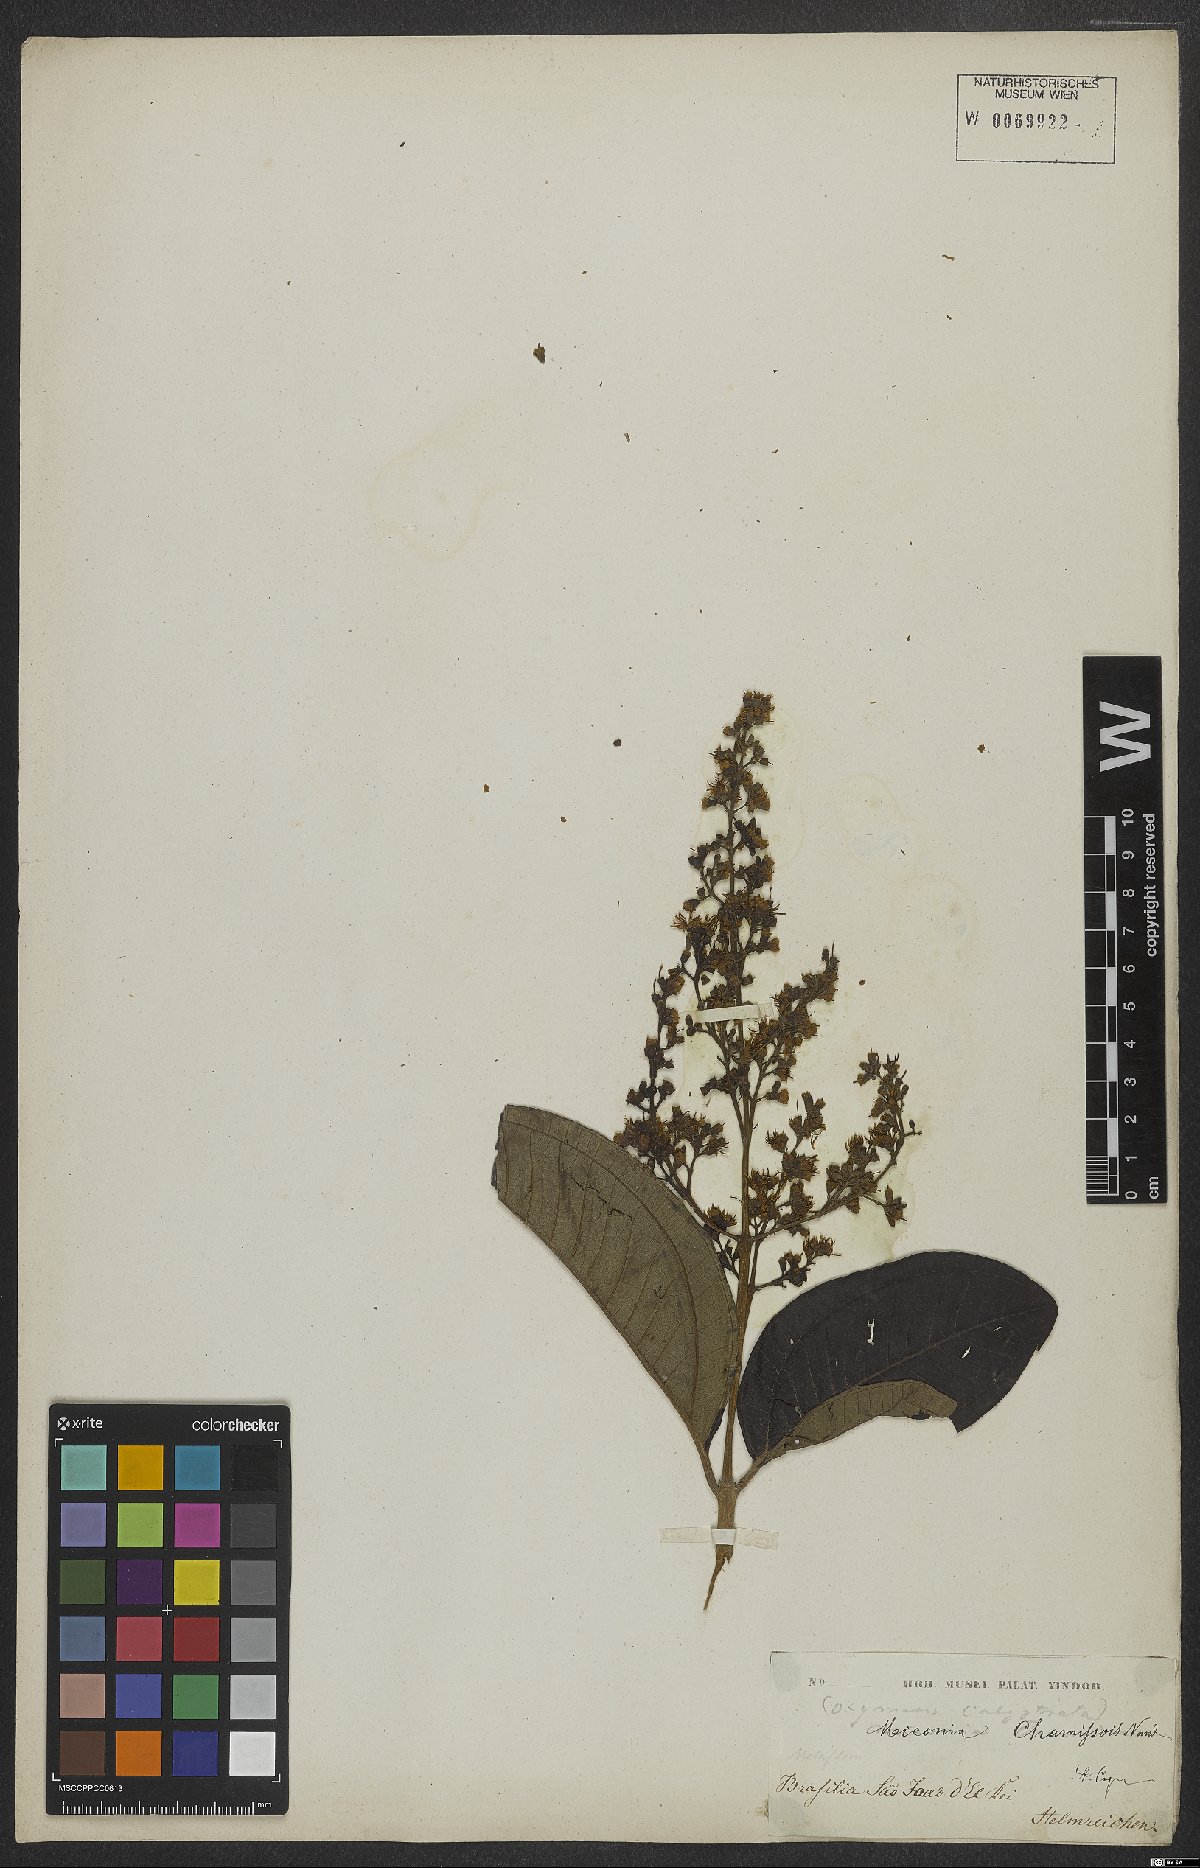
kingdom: Plantae
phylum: Tracheophyta
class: Magnoliopsida
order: Myrtales
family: Melastomataceae
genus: Miconia
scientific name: Miconia chamissois
